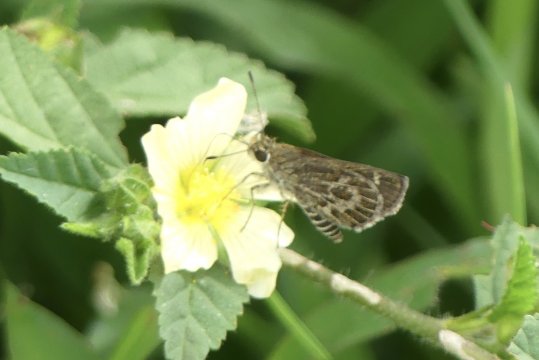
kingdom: Animalia
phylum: Arthropoda
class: Insecta
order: Lepidoptera
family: Nymphalidae
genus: Corades
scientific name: Corades sareba
